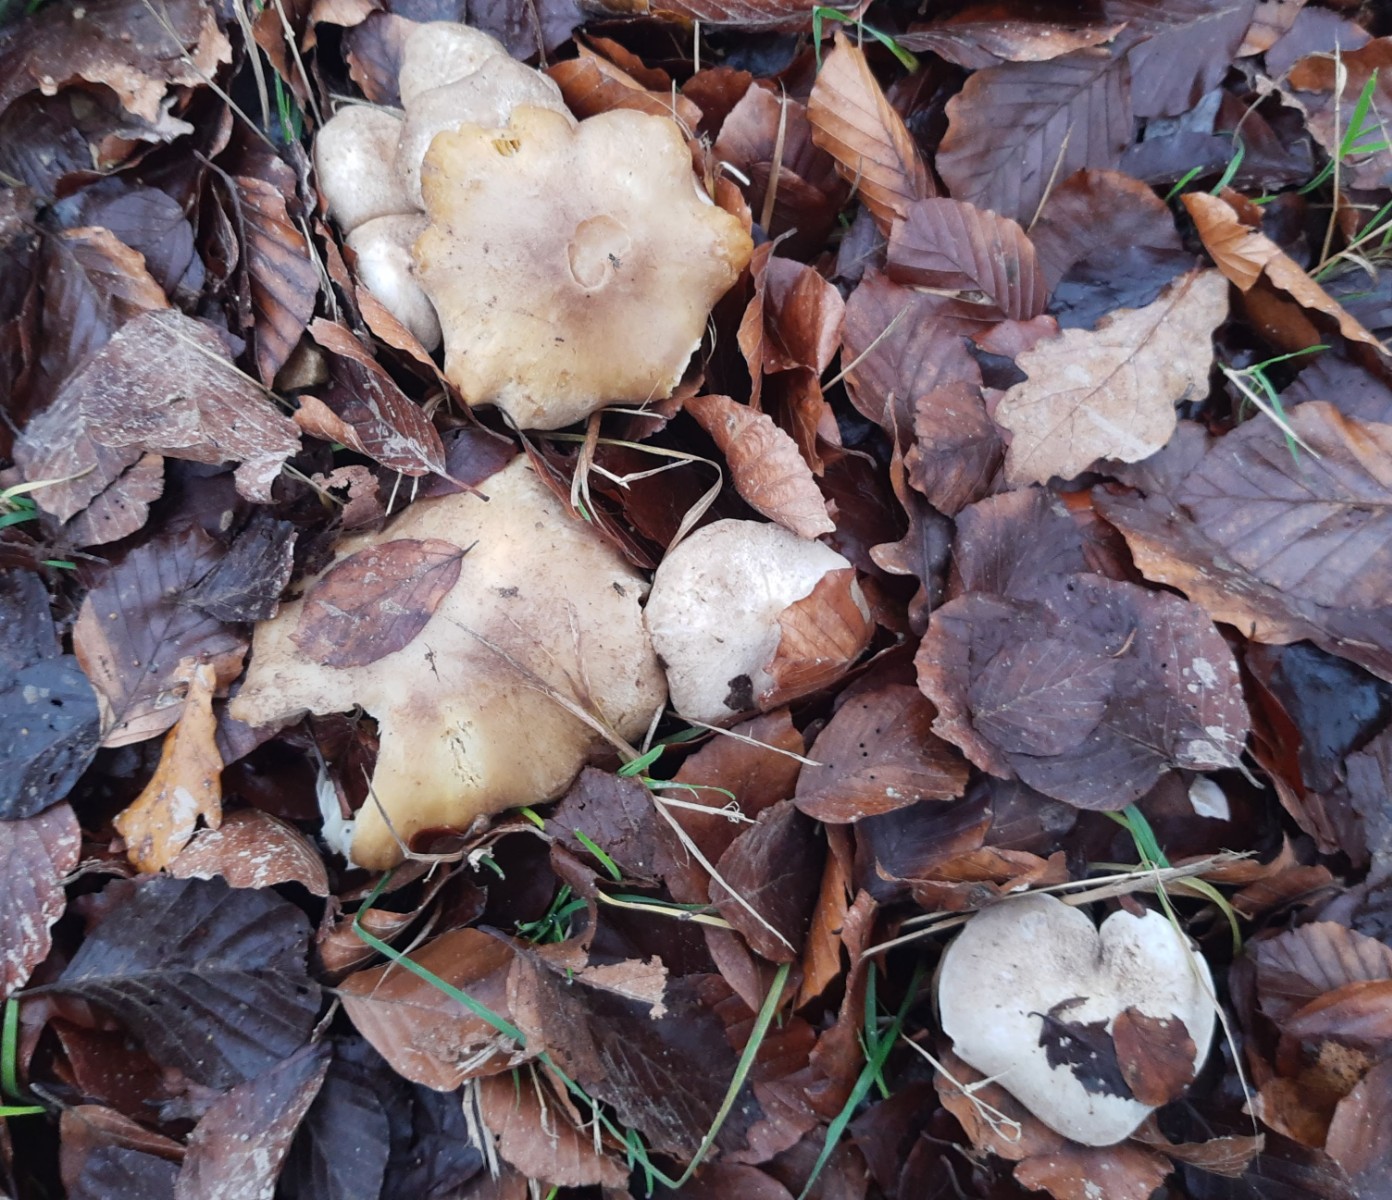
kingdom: Fungi
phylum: Basidiomycota
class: Agaricomycetes
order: Agaricales
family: Tricholomataceae
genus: Tricholoma
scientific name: Tricholoma
